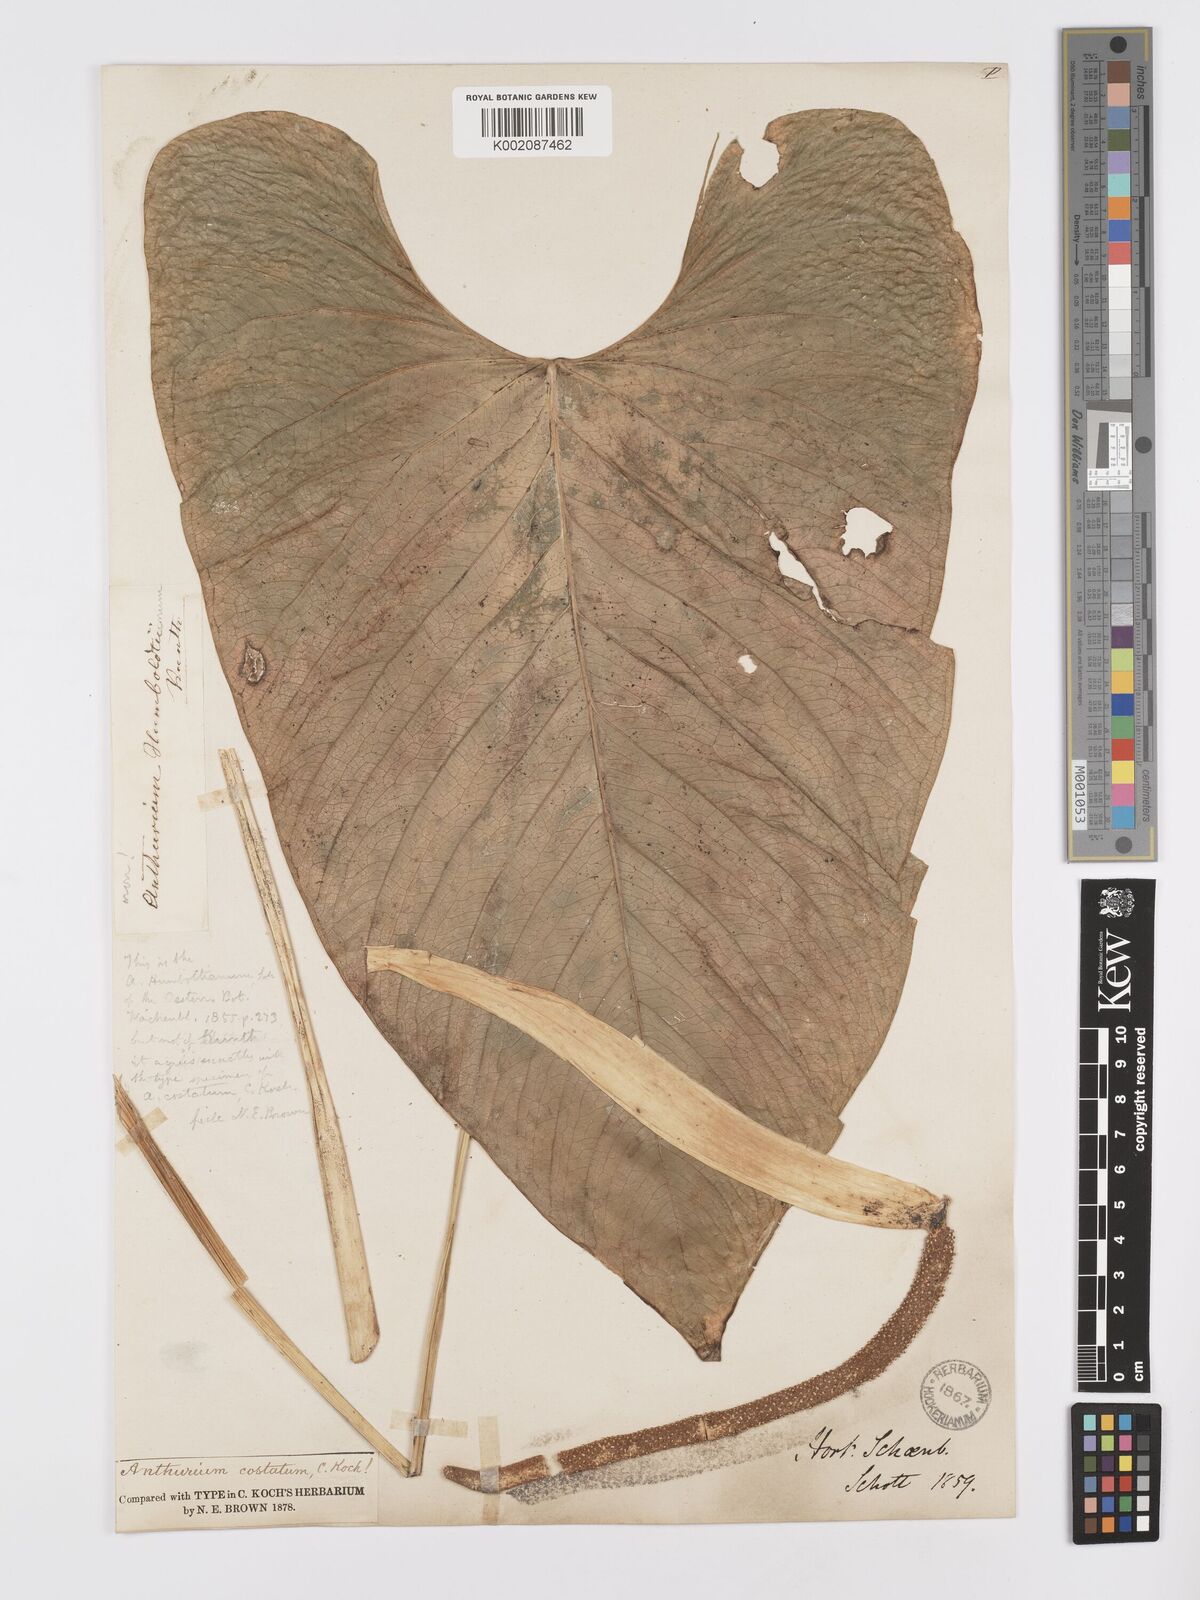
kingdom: Plantae
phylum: Tracheophyta
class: Liliopsida
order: Alismatales
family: Araceae
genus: Anthurium
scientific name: Anthurium macrophyllum
